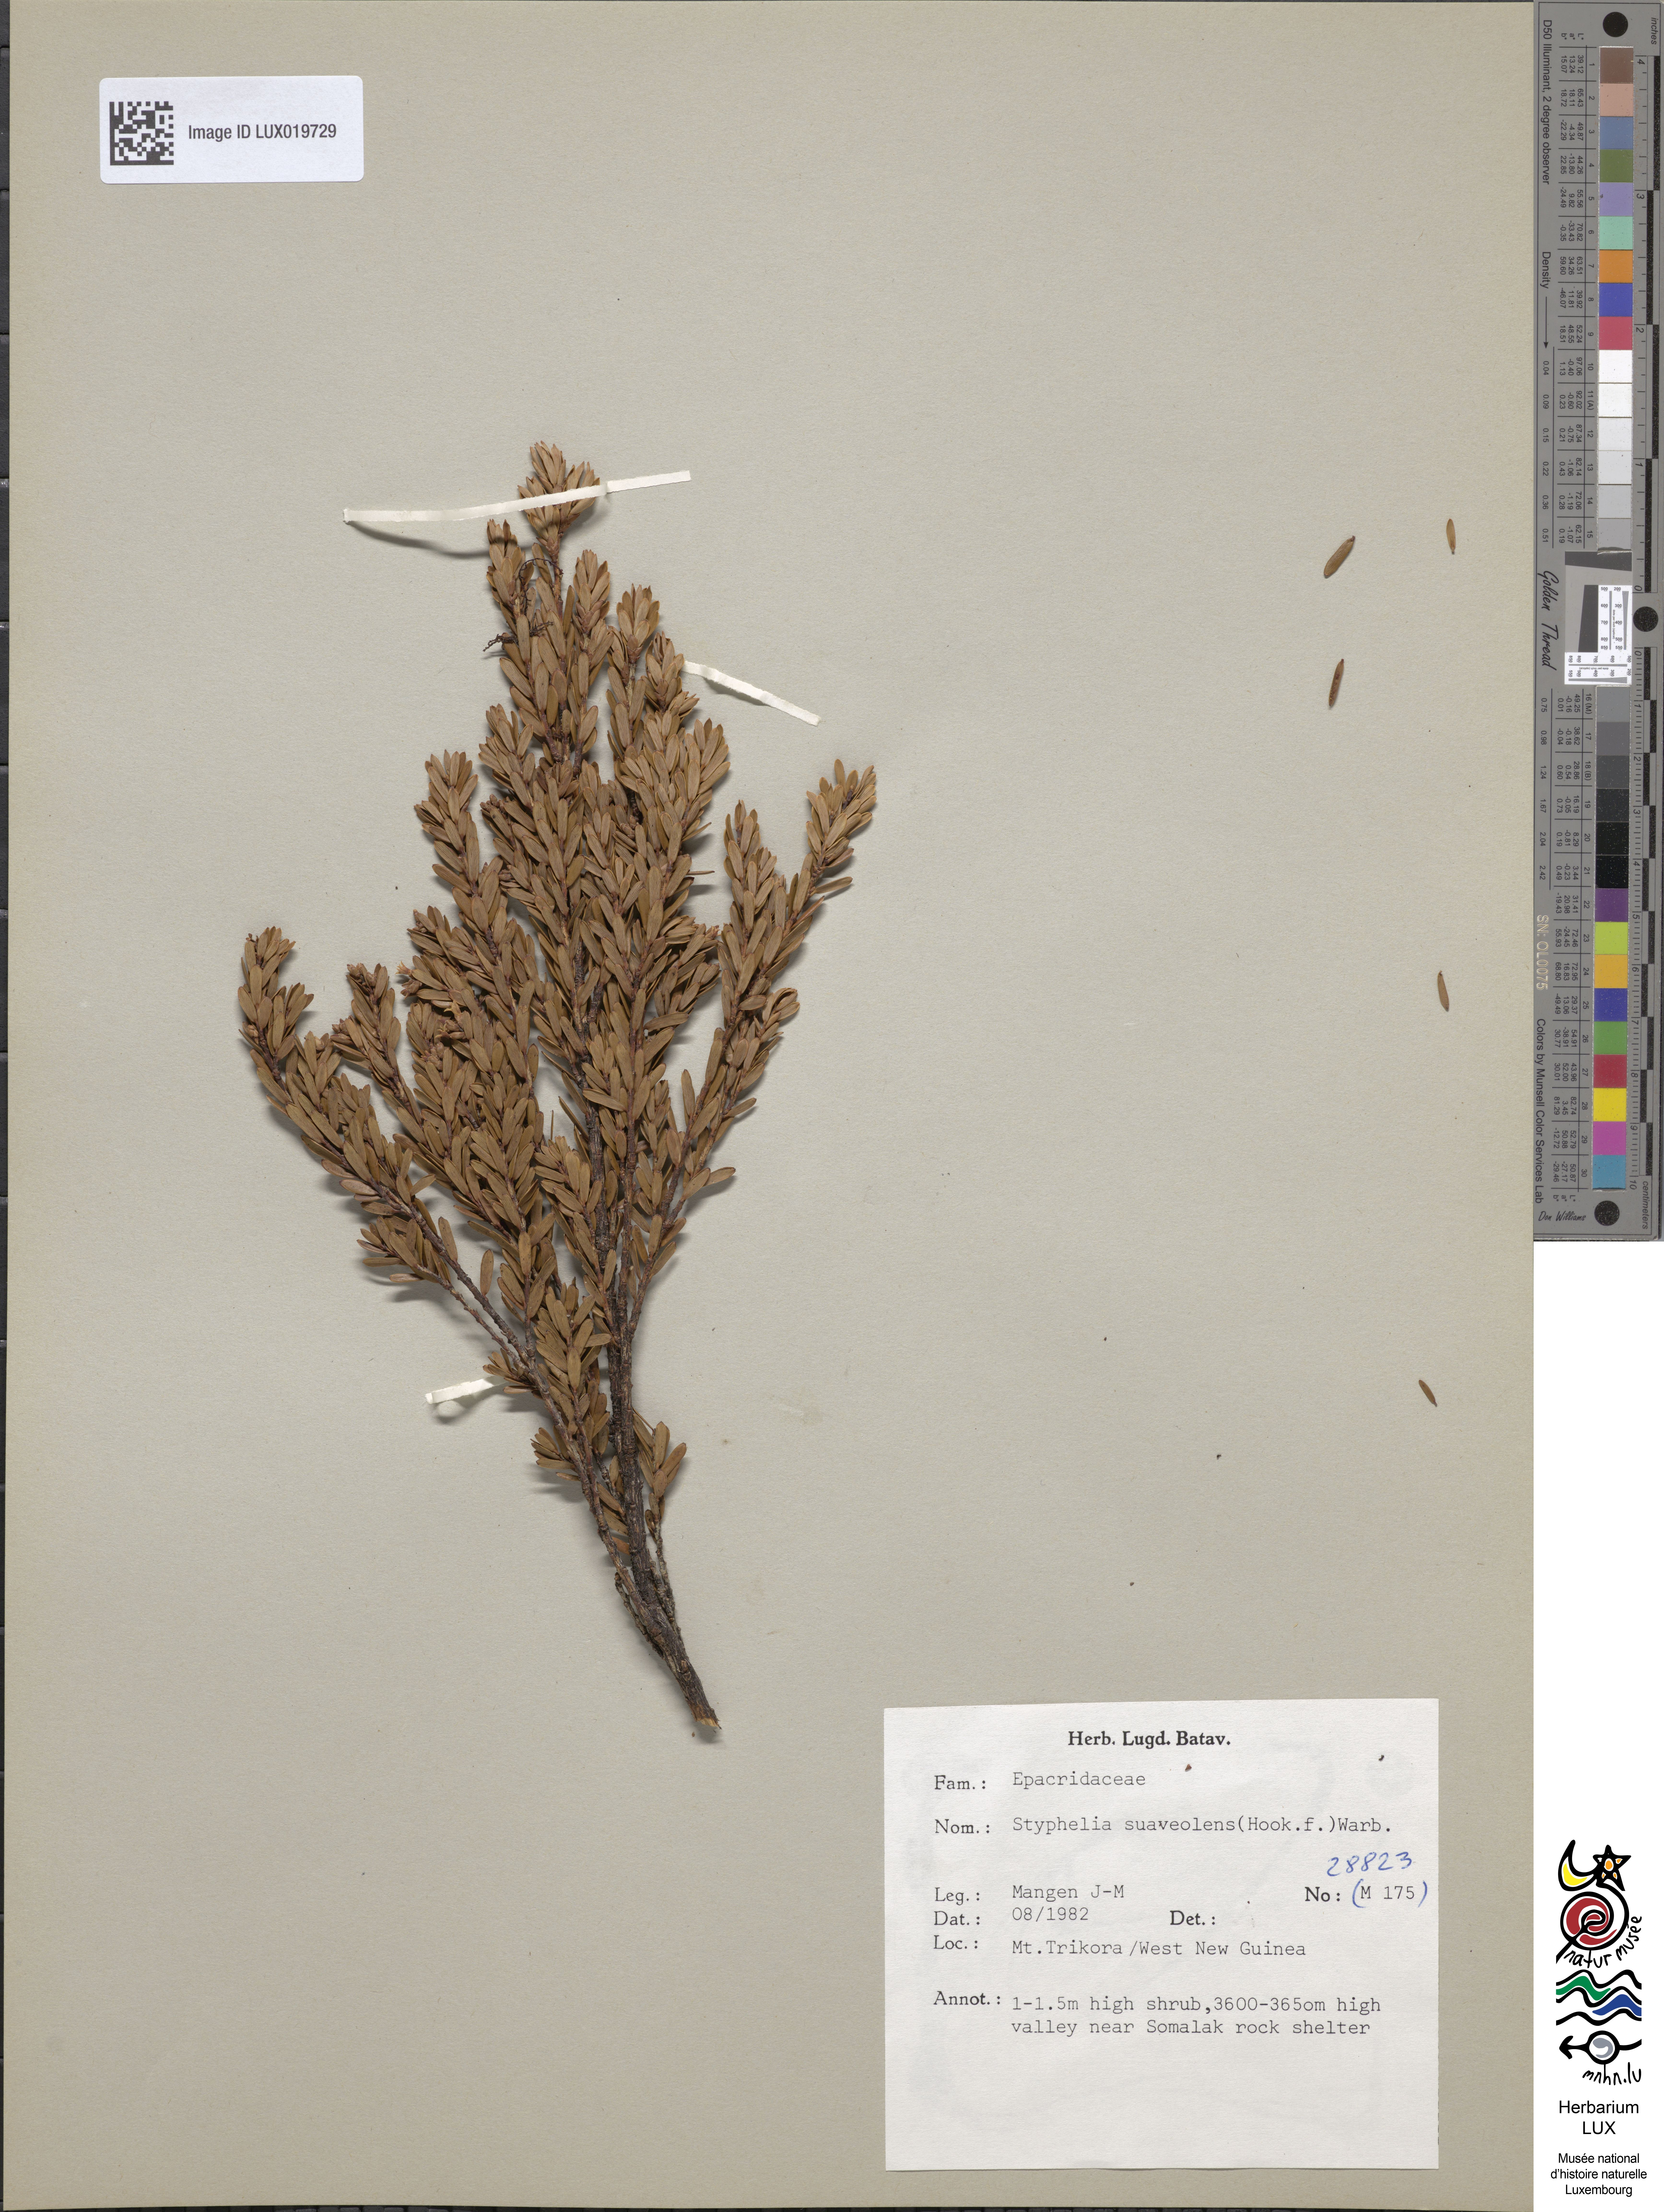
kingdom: Plantae
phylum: Tracheophyta
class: Magnoliopsida
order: Ericales
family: Ericaceae
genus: Acrothamnus
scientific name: Acrothamnus suaveolens
